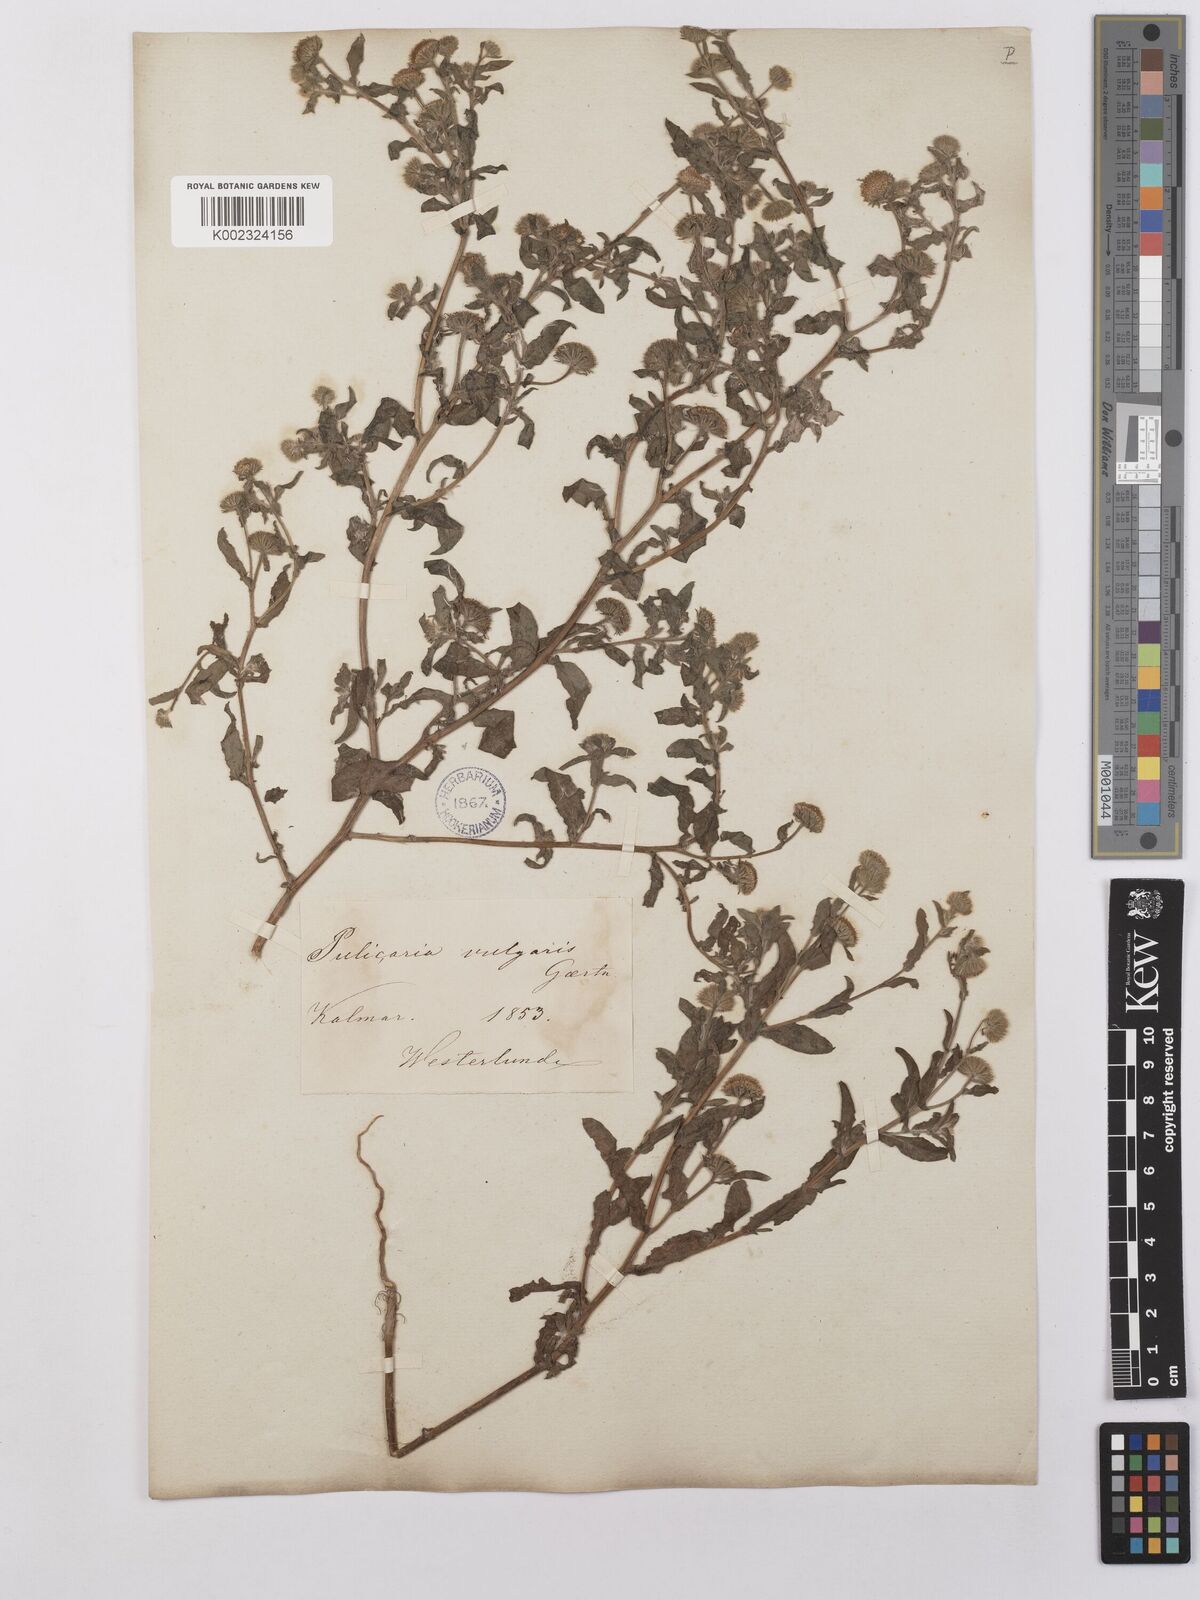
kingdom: Plantae
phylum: Tracheophyta
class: Magnoliopsida
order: Asterales
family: Asteraceae
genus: Pulicaria
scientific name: Pulicaria vulgaris
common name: Small fleabane
